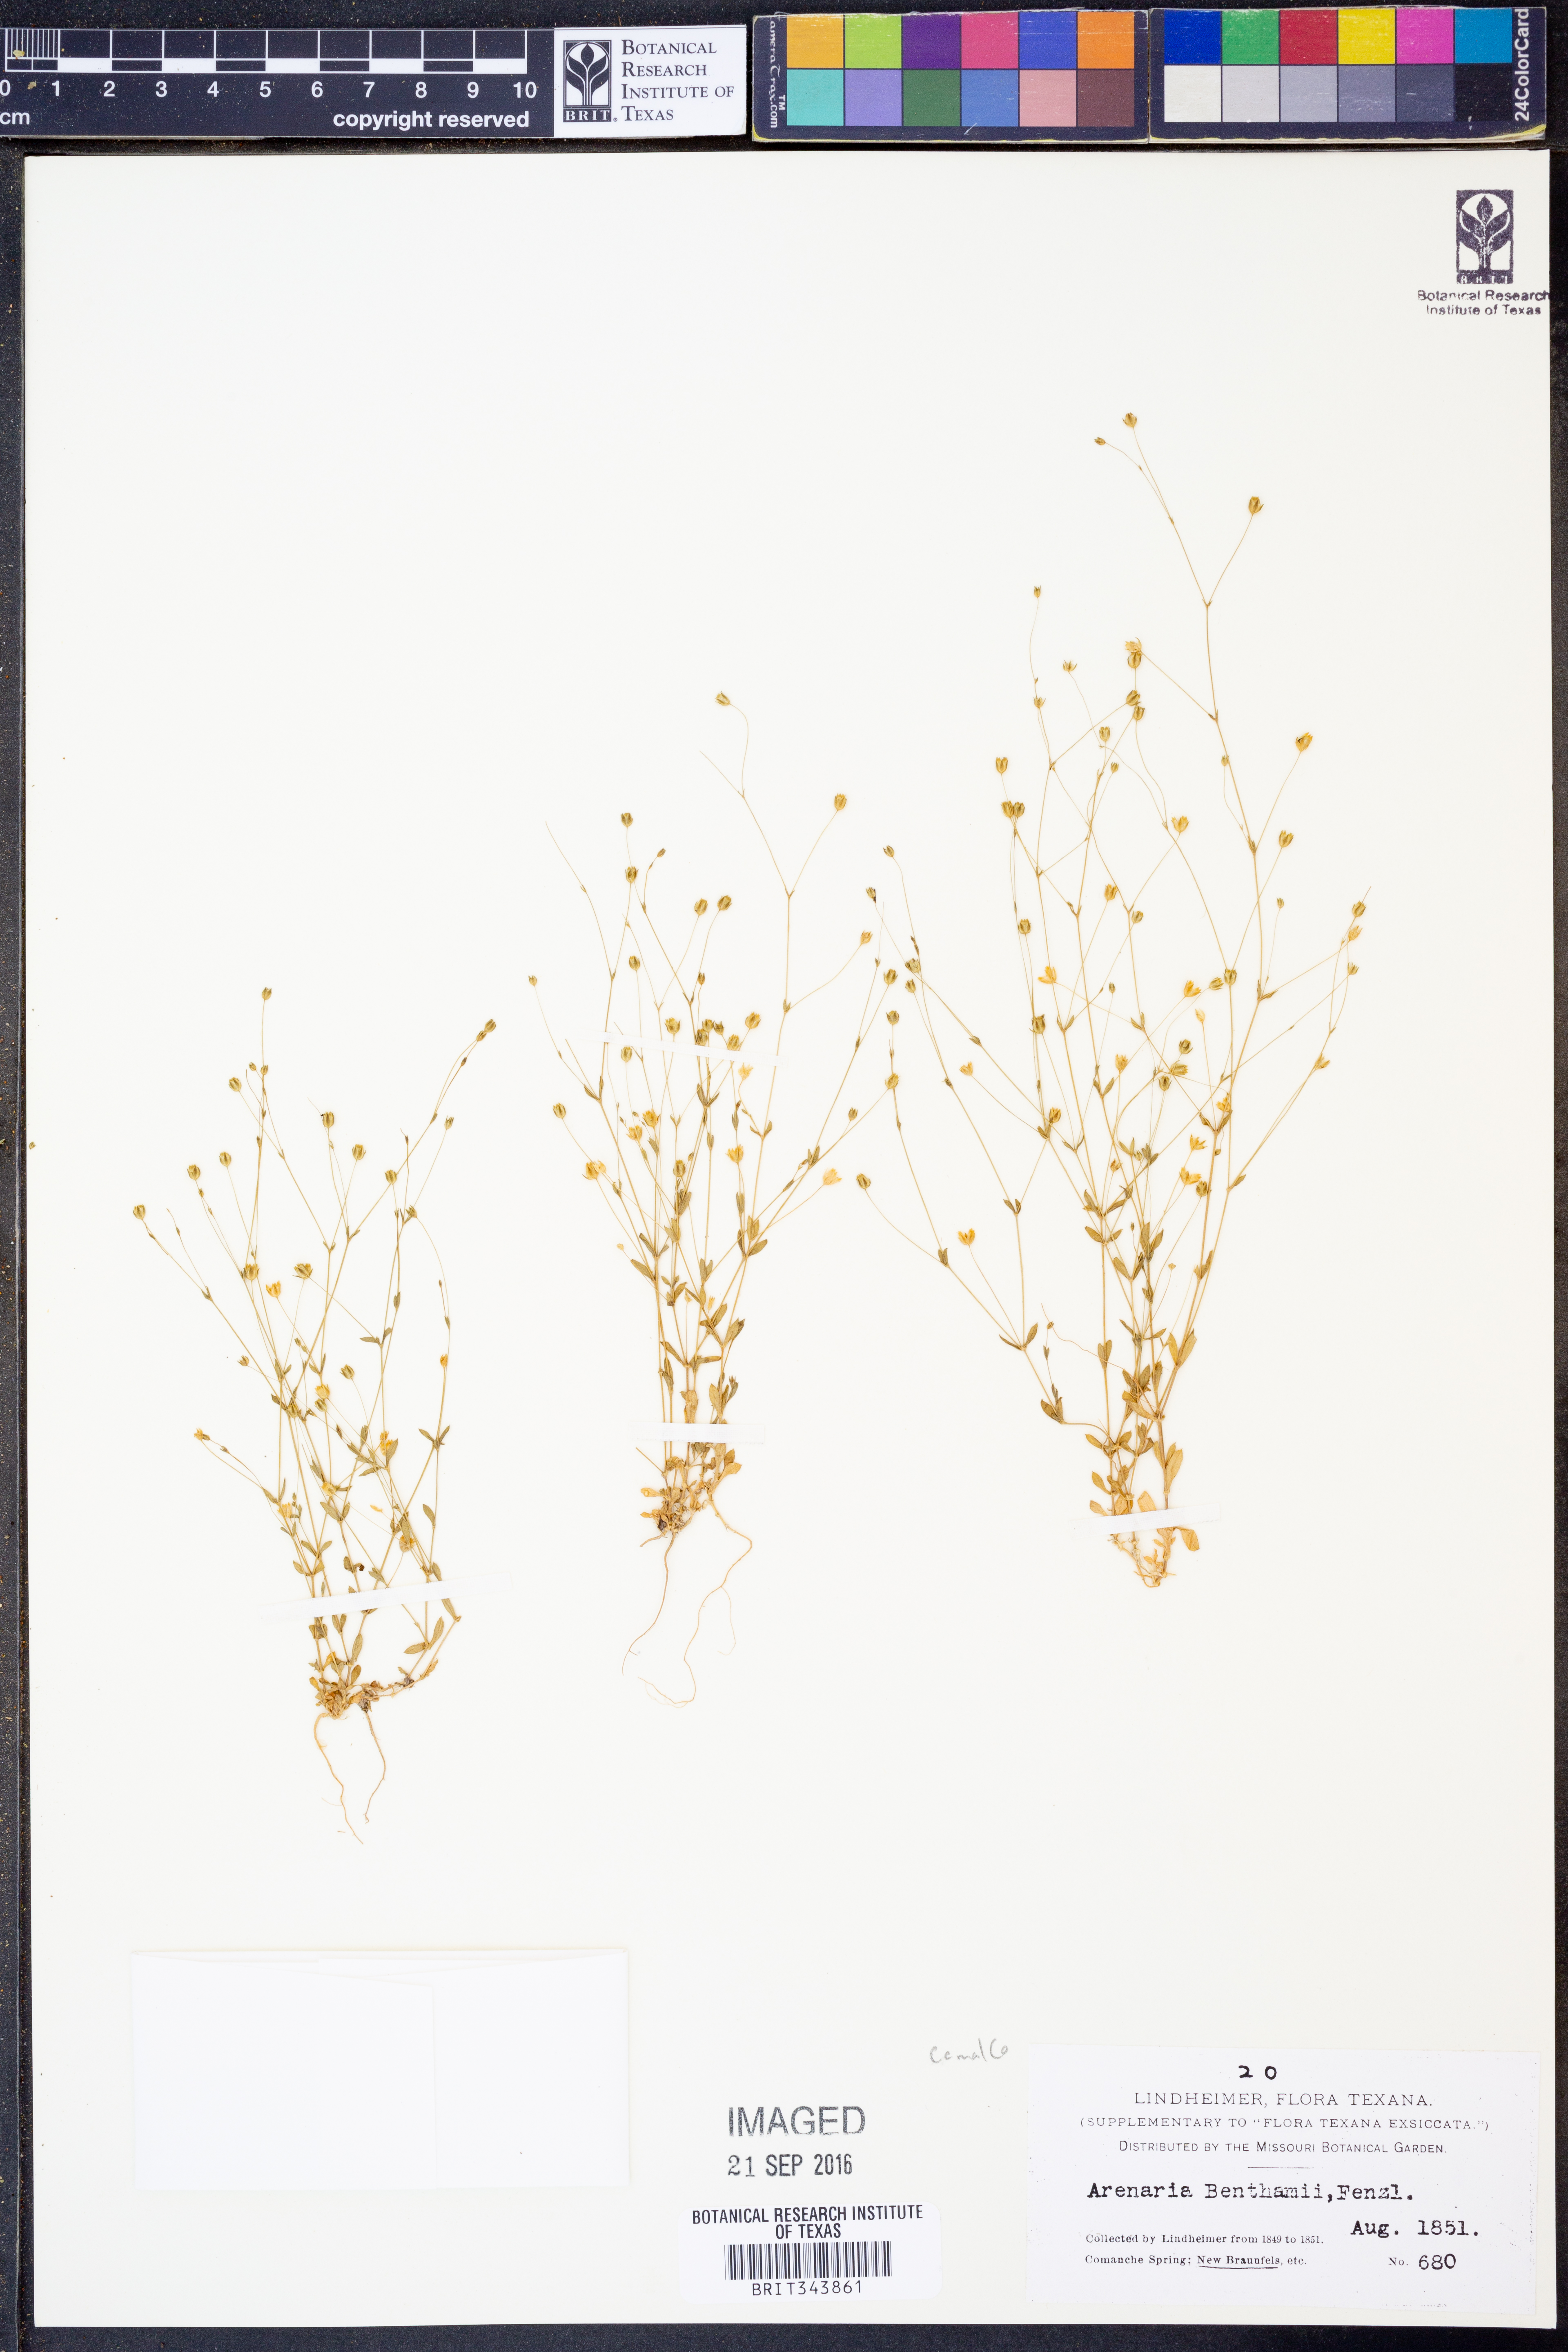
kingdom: Plantae
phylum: Tracheophyta
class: Magnoliopsida
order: Caryophyllales
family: Caryophyllaceae
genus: Arenaria
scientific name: Arenaria benthamii
